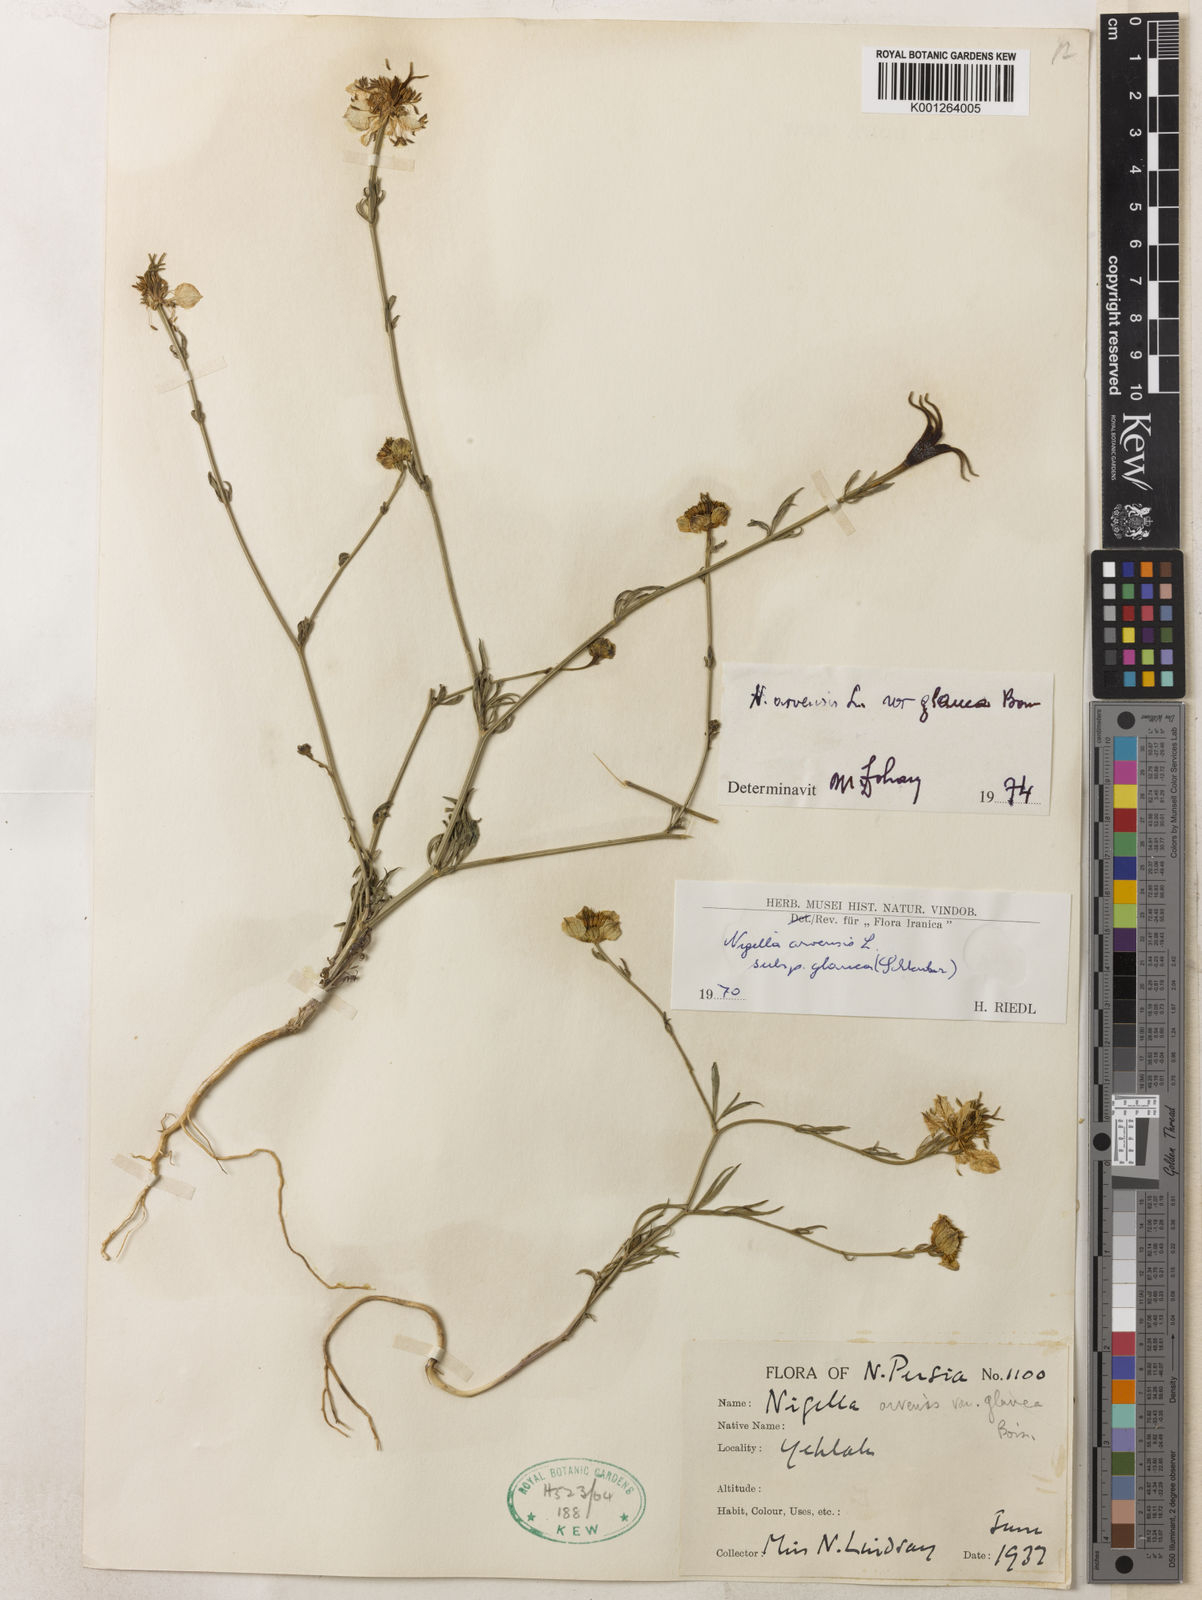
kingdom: Plantae
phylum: Tracheophyta
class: Magnoliopsida
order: Ranunculales
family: Ranunculaceae
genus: Nigella
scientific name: Nigella arvensis
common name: Wild fennel-flower
